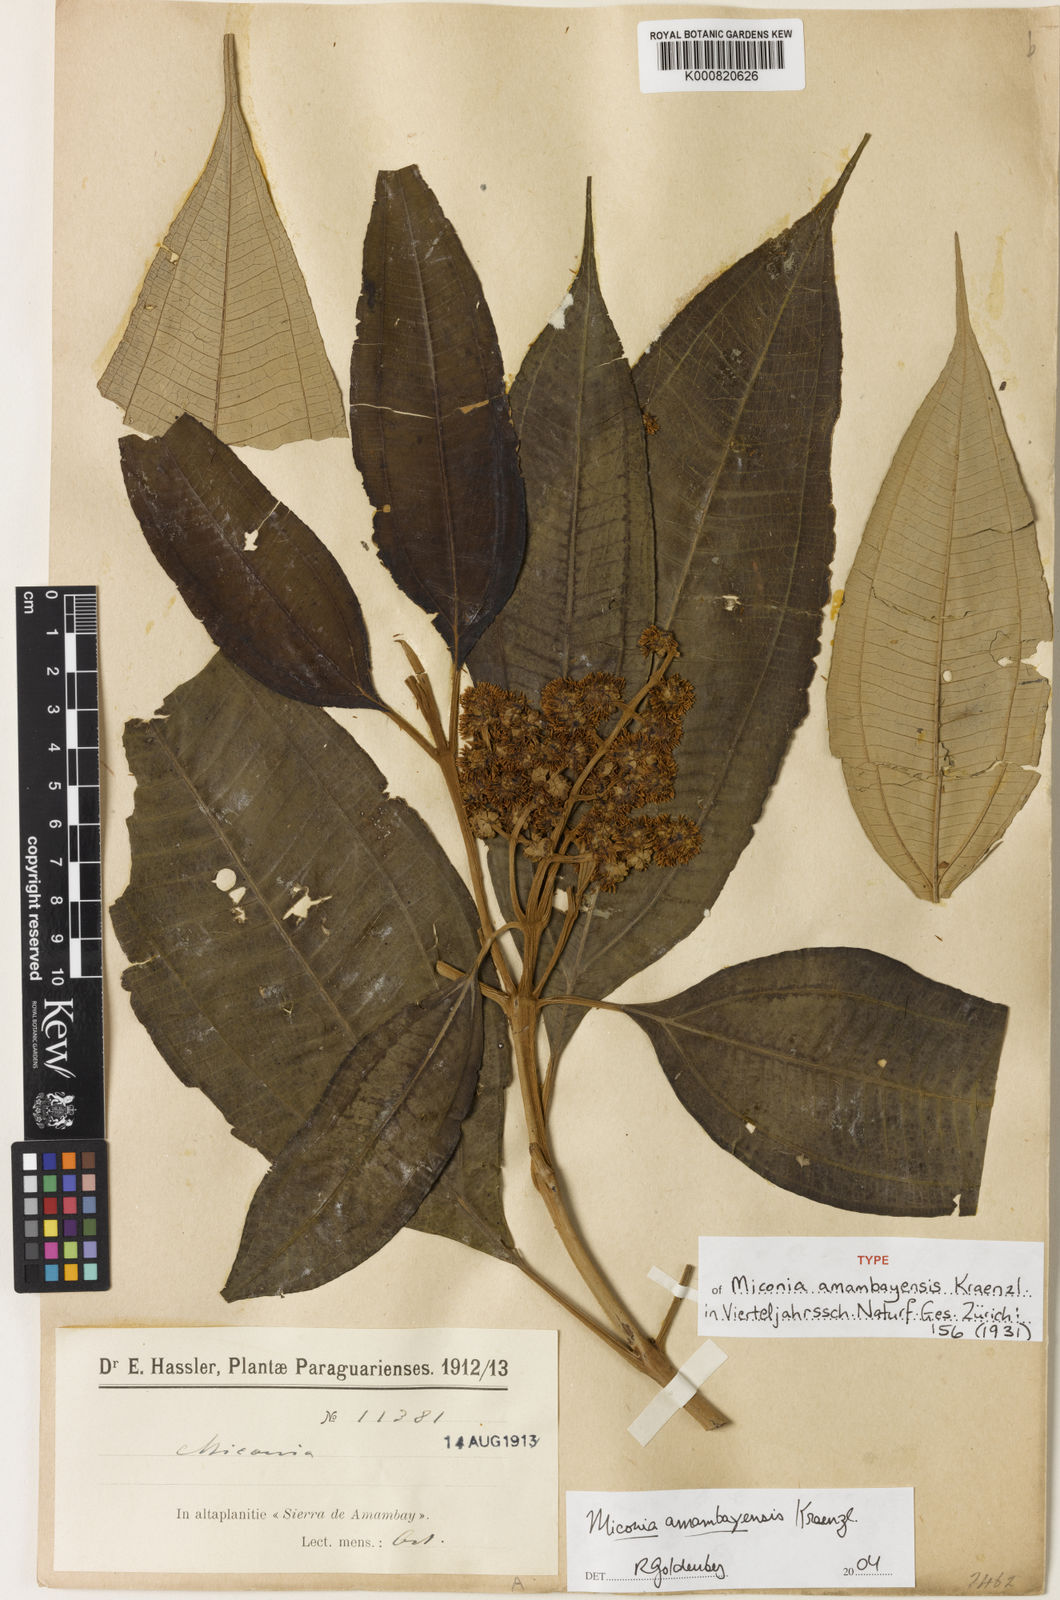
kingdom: Plantae
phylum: Tracheophyta
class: Magnoliopsida
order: Myrtales
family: Melastomataceae
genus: Miconia
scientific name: Miconia buddlejoides
